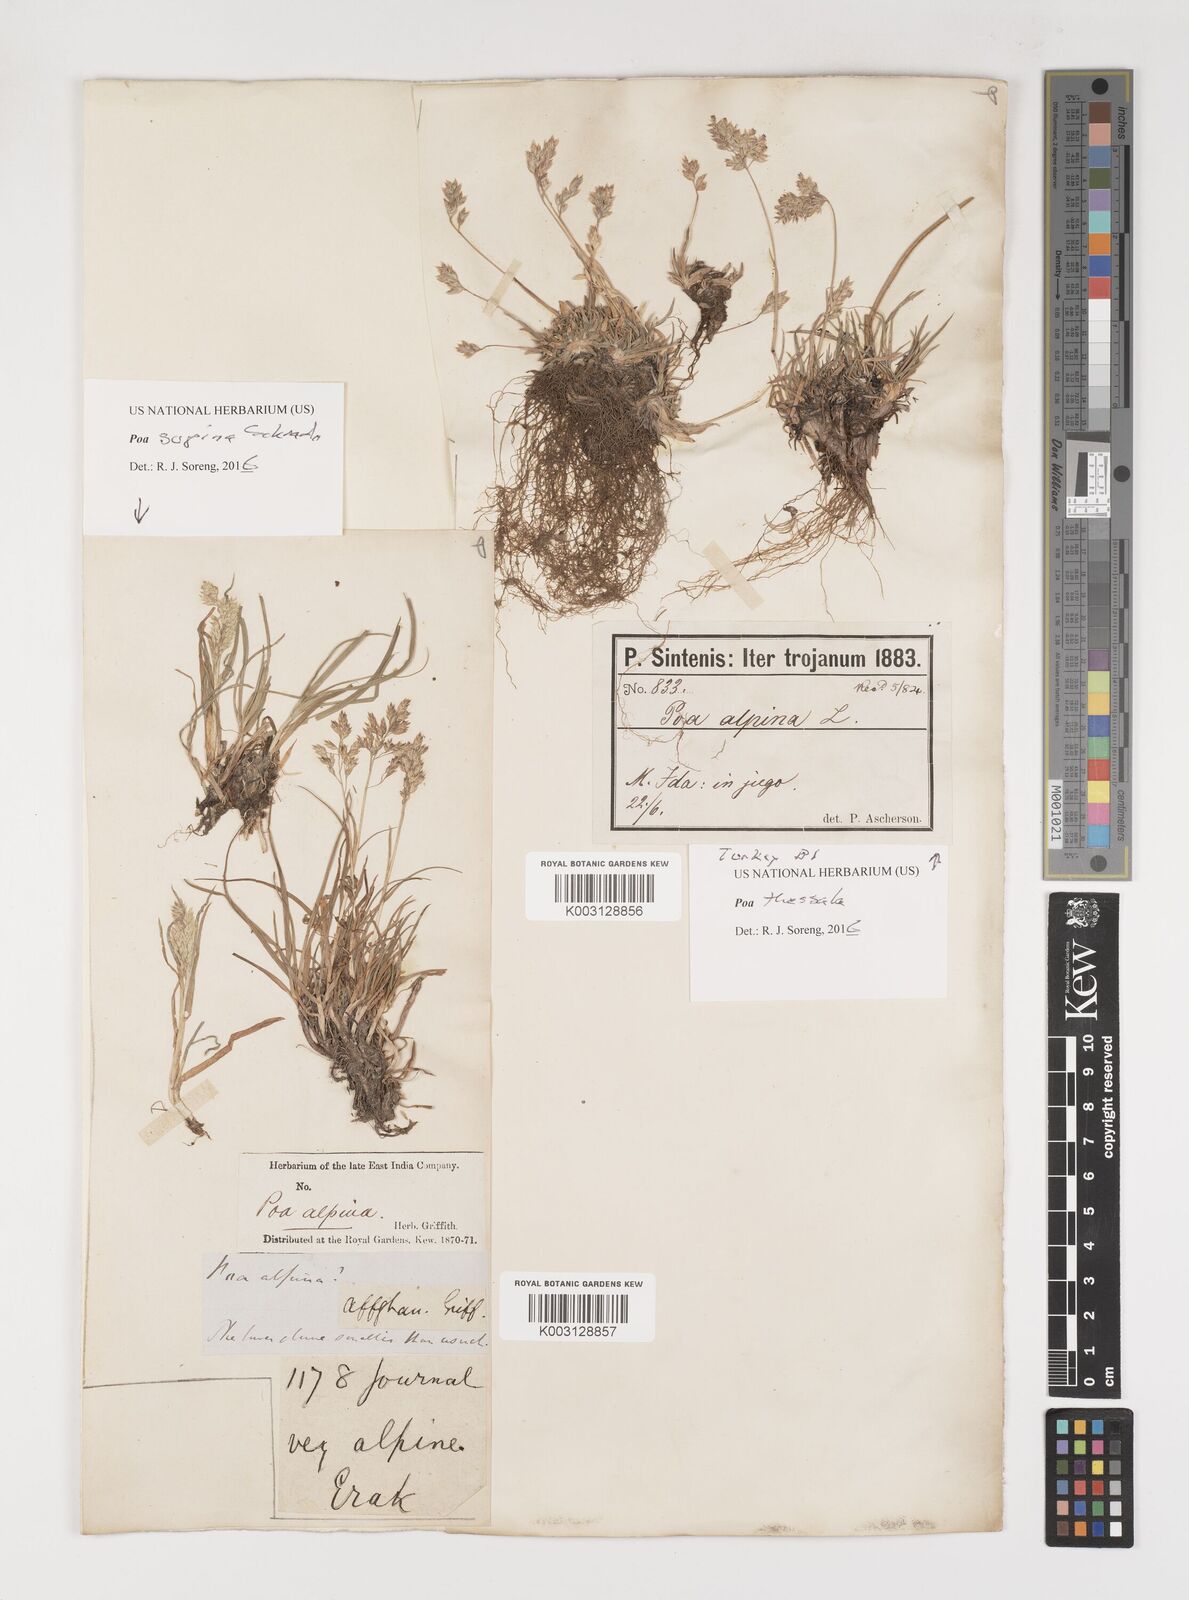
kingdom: Plantae
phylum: Tracheophyta
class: Liliopsida
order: Poales
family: Poaceae
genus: Poa
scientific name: Poa thessala
